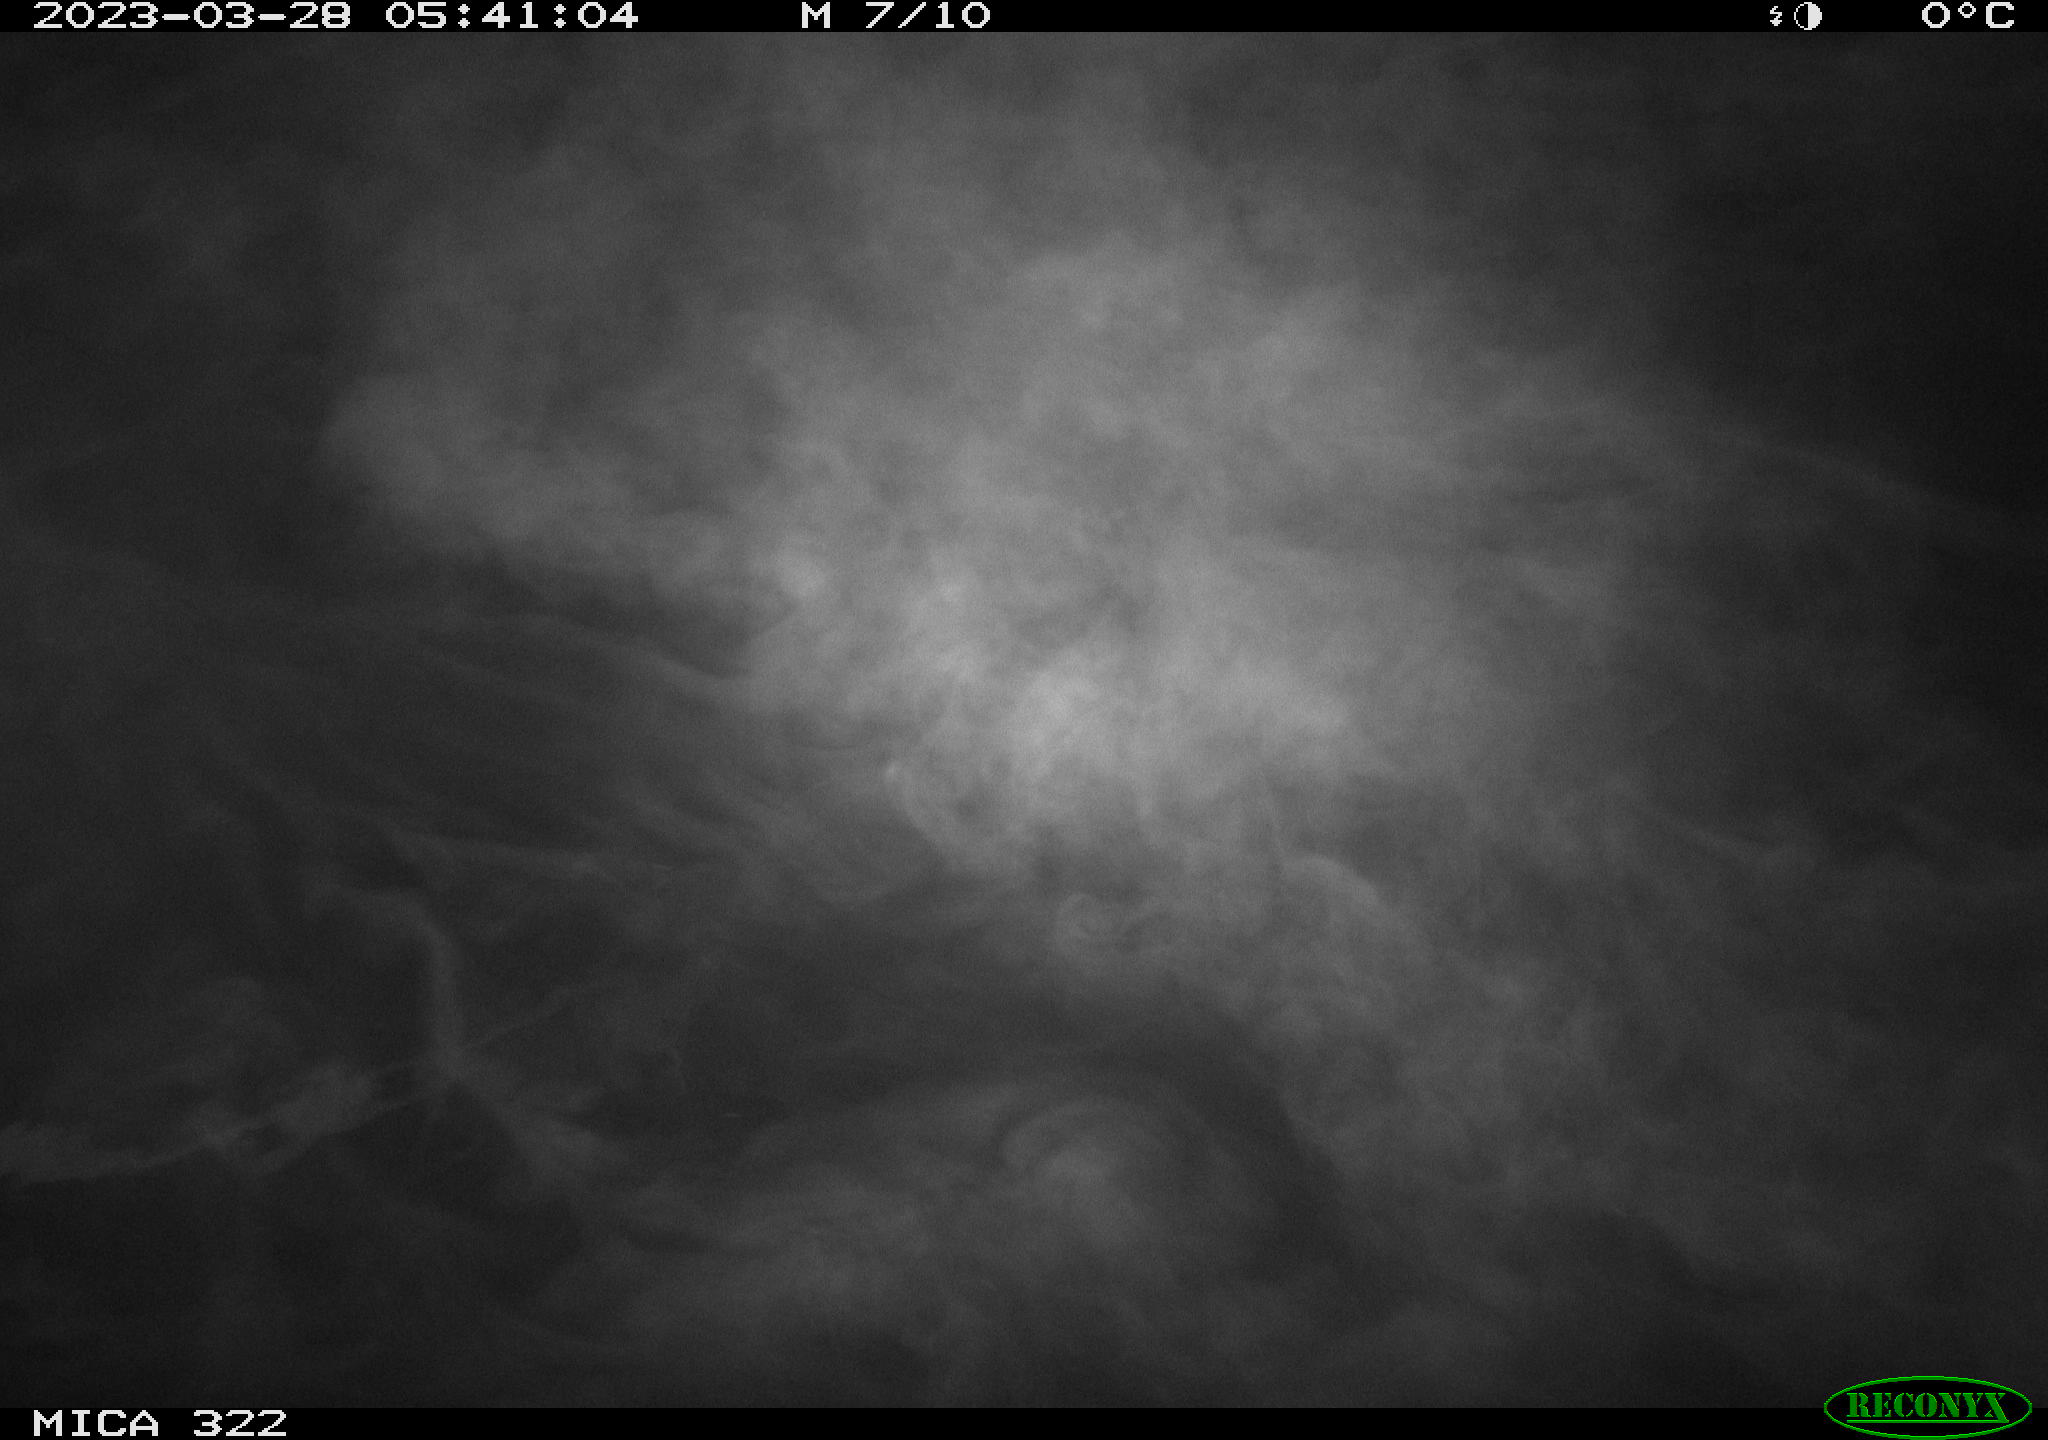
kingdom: Animalia
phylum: Chordata
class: Aves
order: Anseriformes
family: Anatidae
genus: Anas
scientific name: Anas
